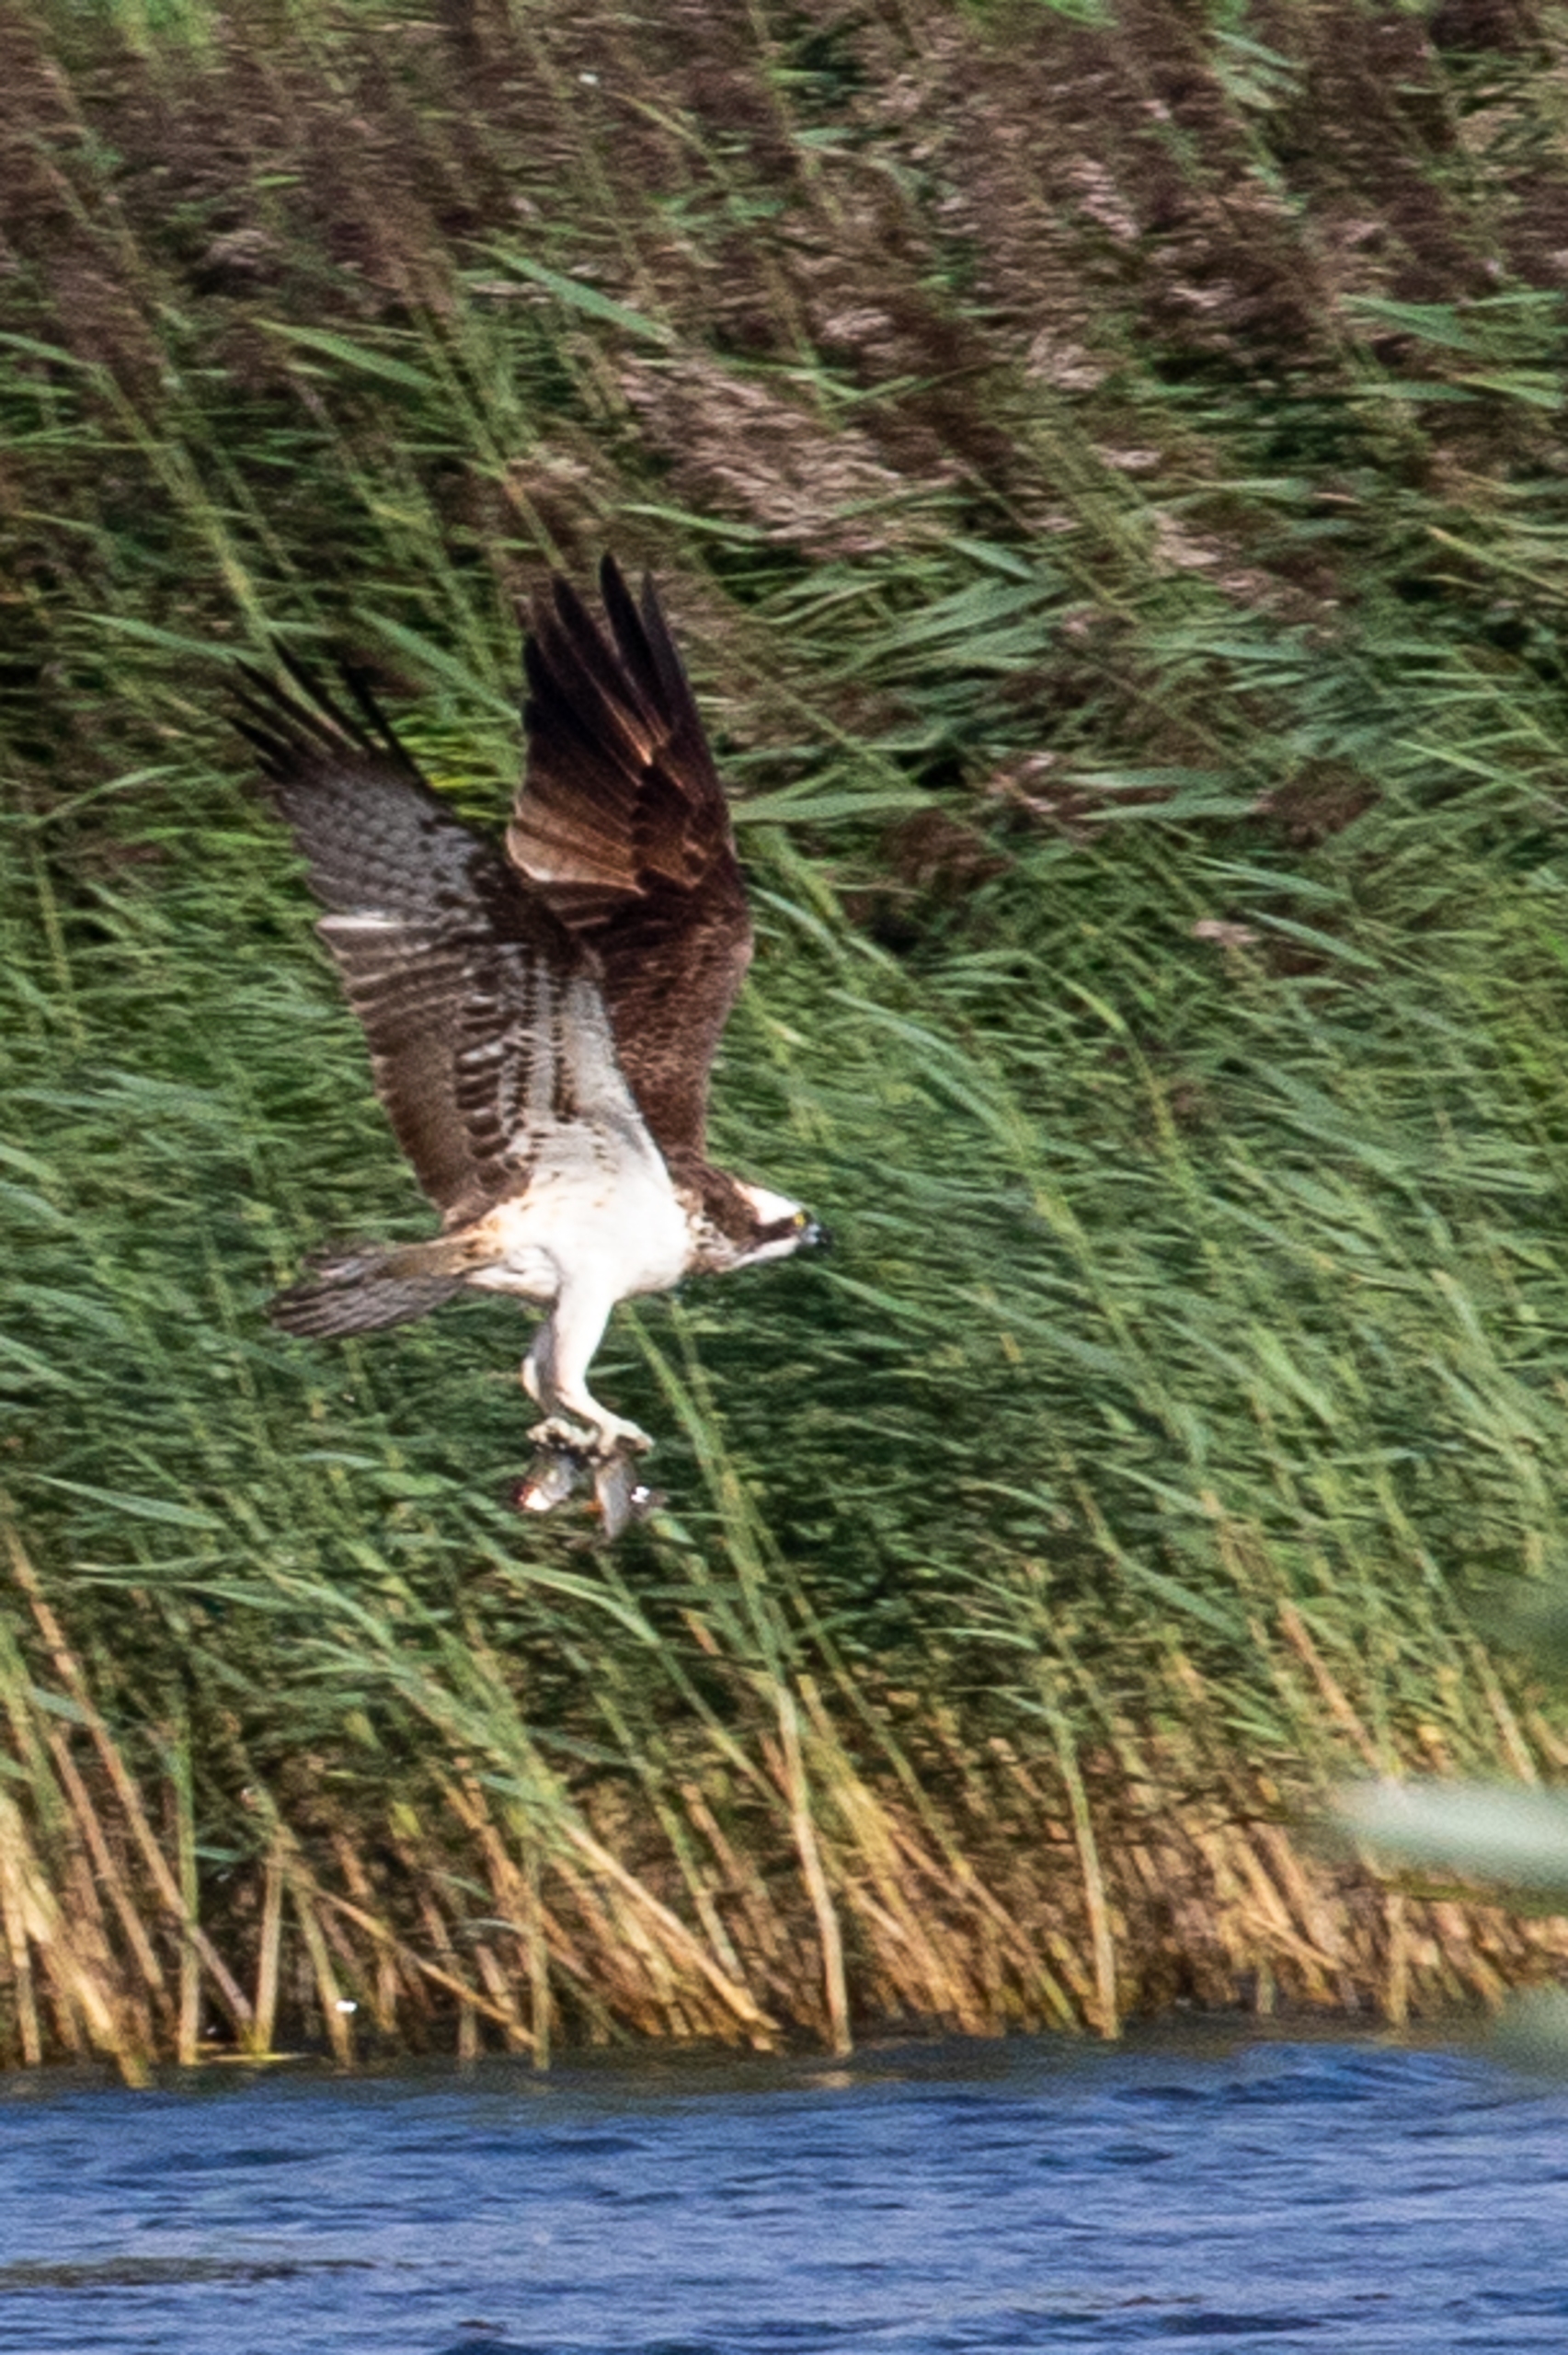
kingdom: Animalia
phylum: Chordata
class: Aves
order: Accipitriformes
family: Pandionidae
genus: Pandion
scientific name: Pandion haliaetus
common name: Fiskeørn
